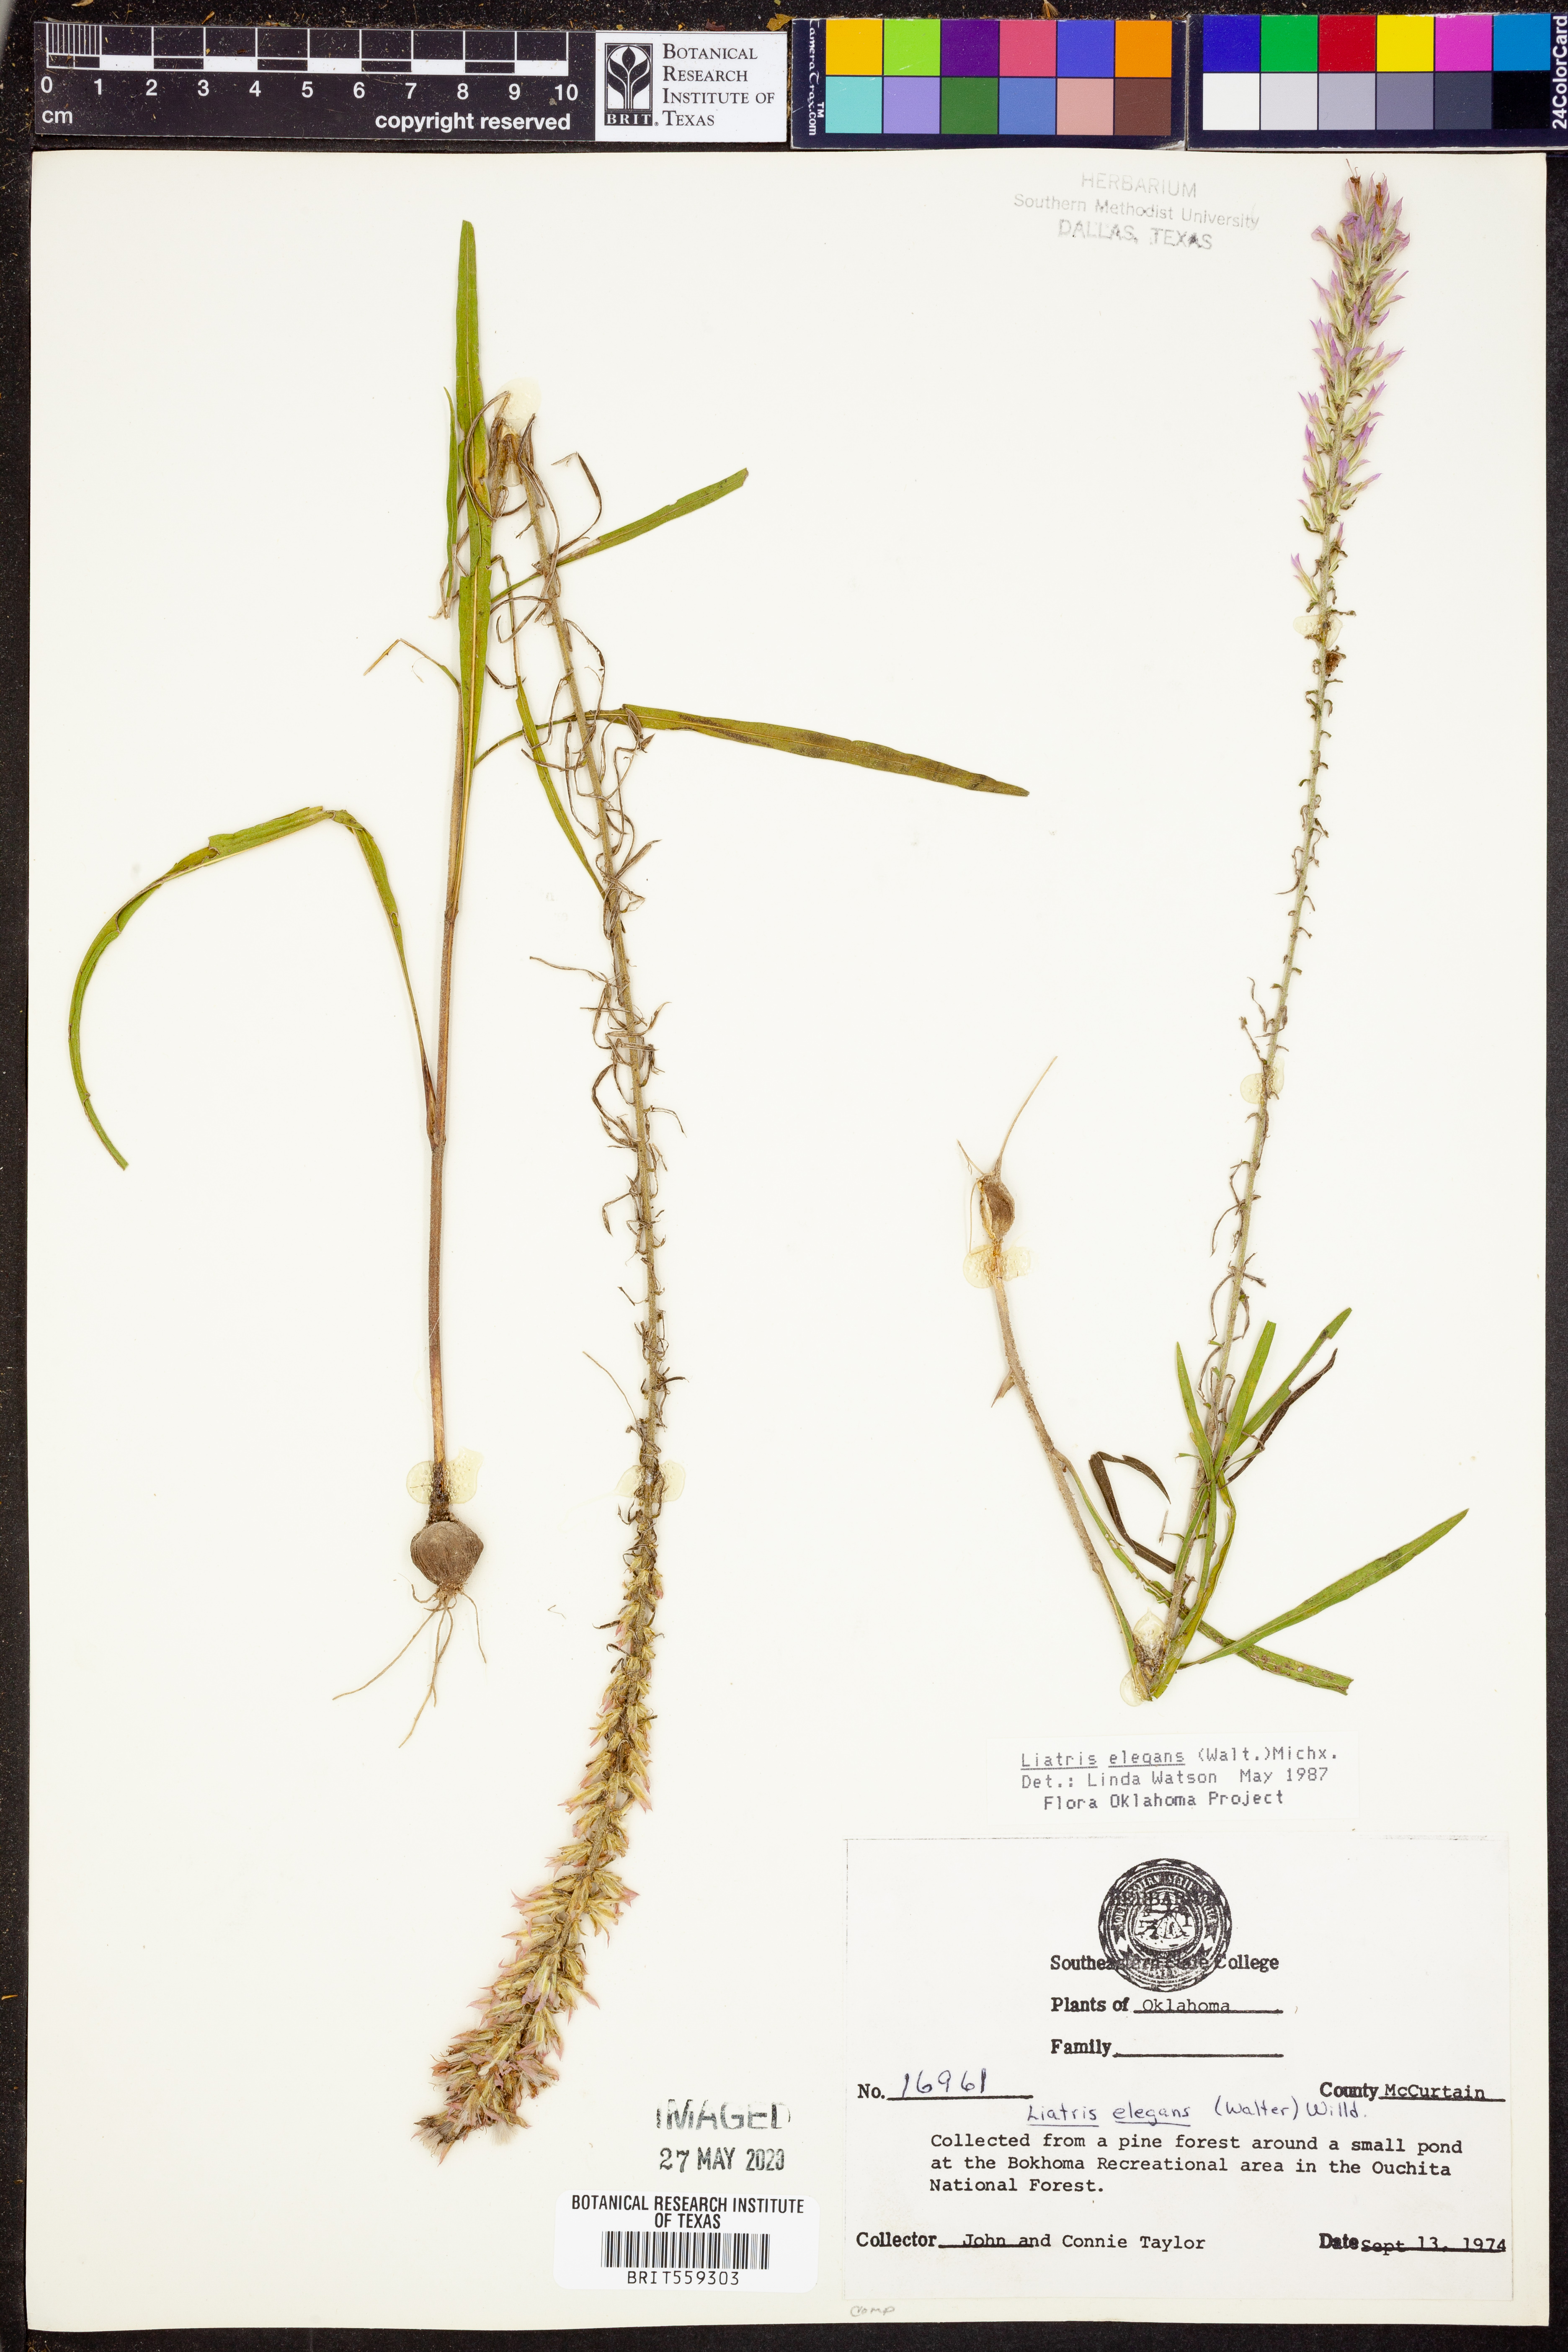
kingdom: Plantae
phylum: Tracheophyta
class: Magnoliopsida
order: Asterales
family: Asteraceae
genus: Liatris
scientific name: Liatris elegans
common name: Pinkscale gayfeather
